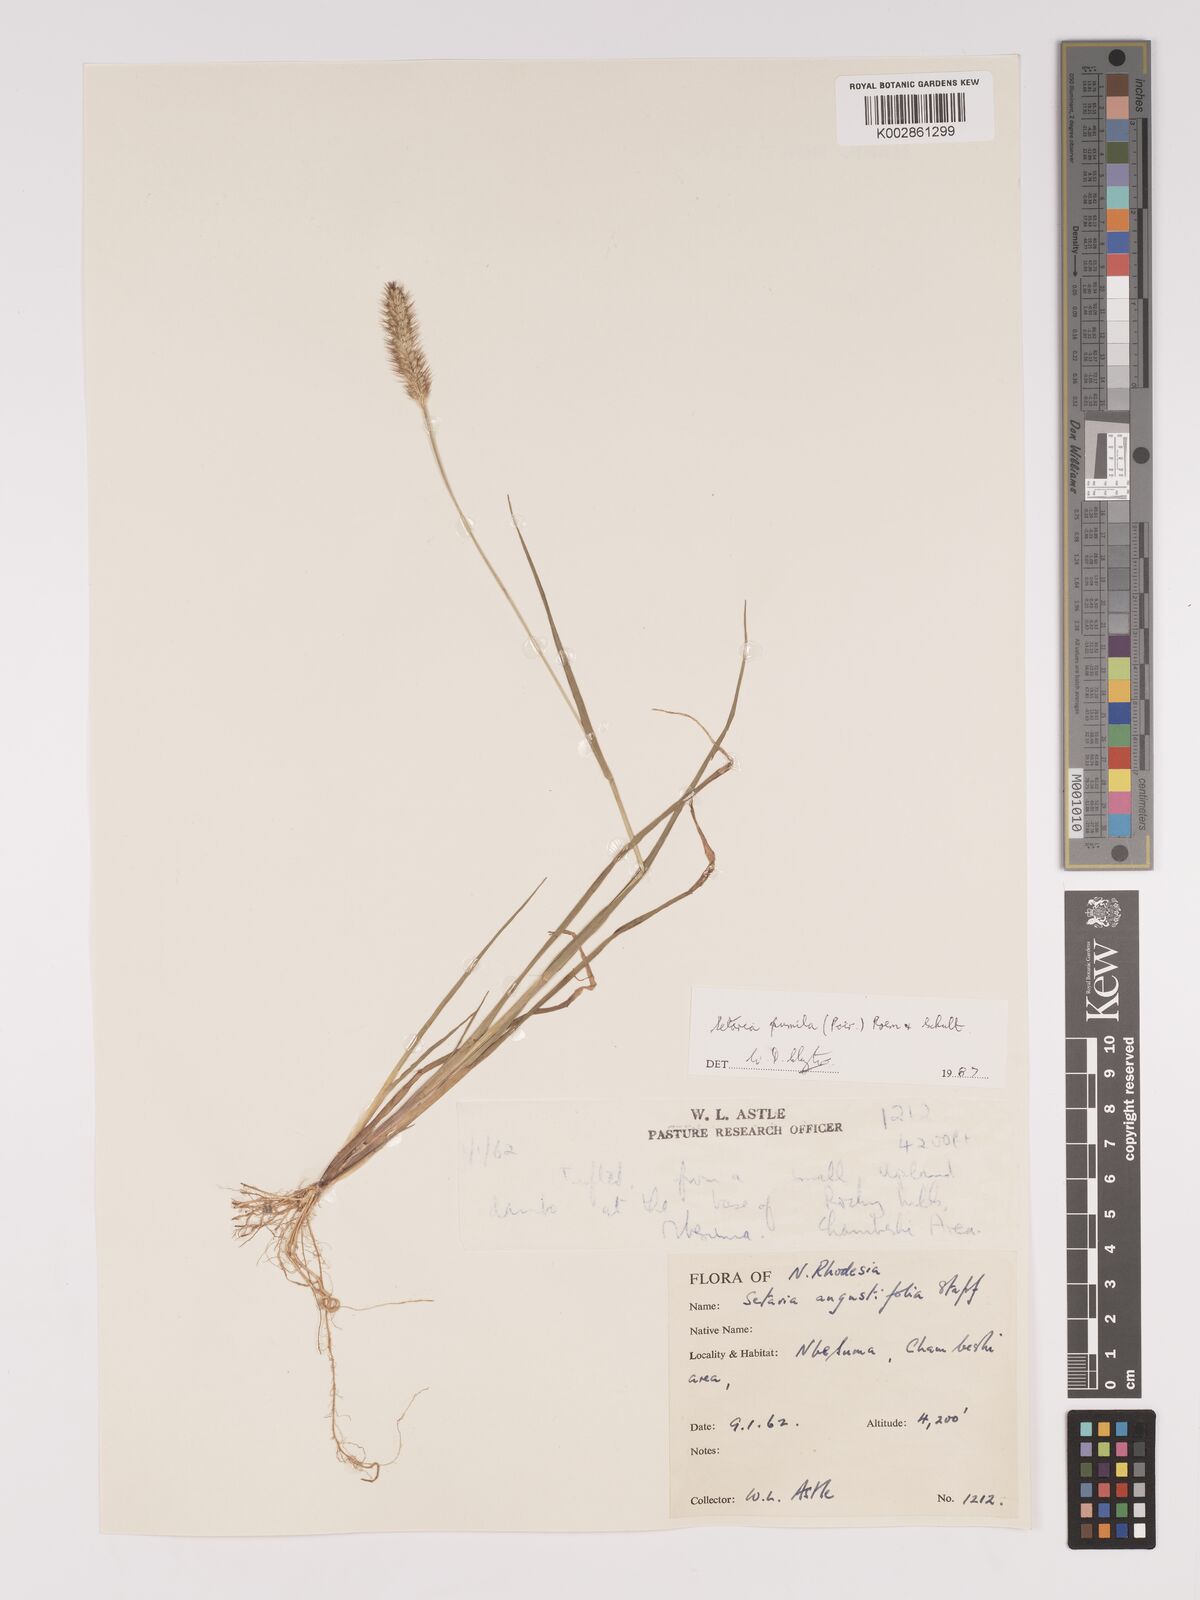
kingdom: Plantae
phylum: Tracheophyta
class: Liliopsida
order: Poales
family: Poaceae
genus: Setaria
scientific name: Setaria pumila
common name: Yellow bristle-grass
